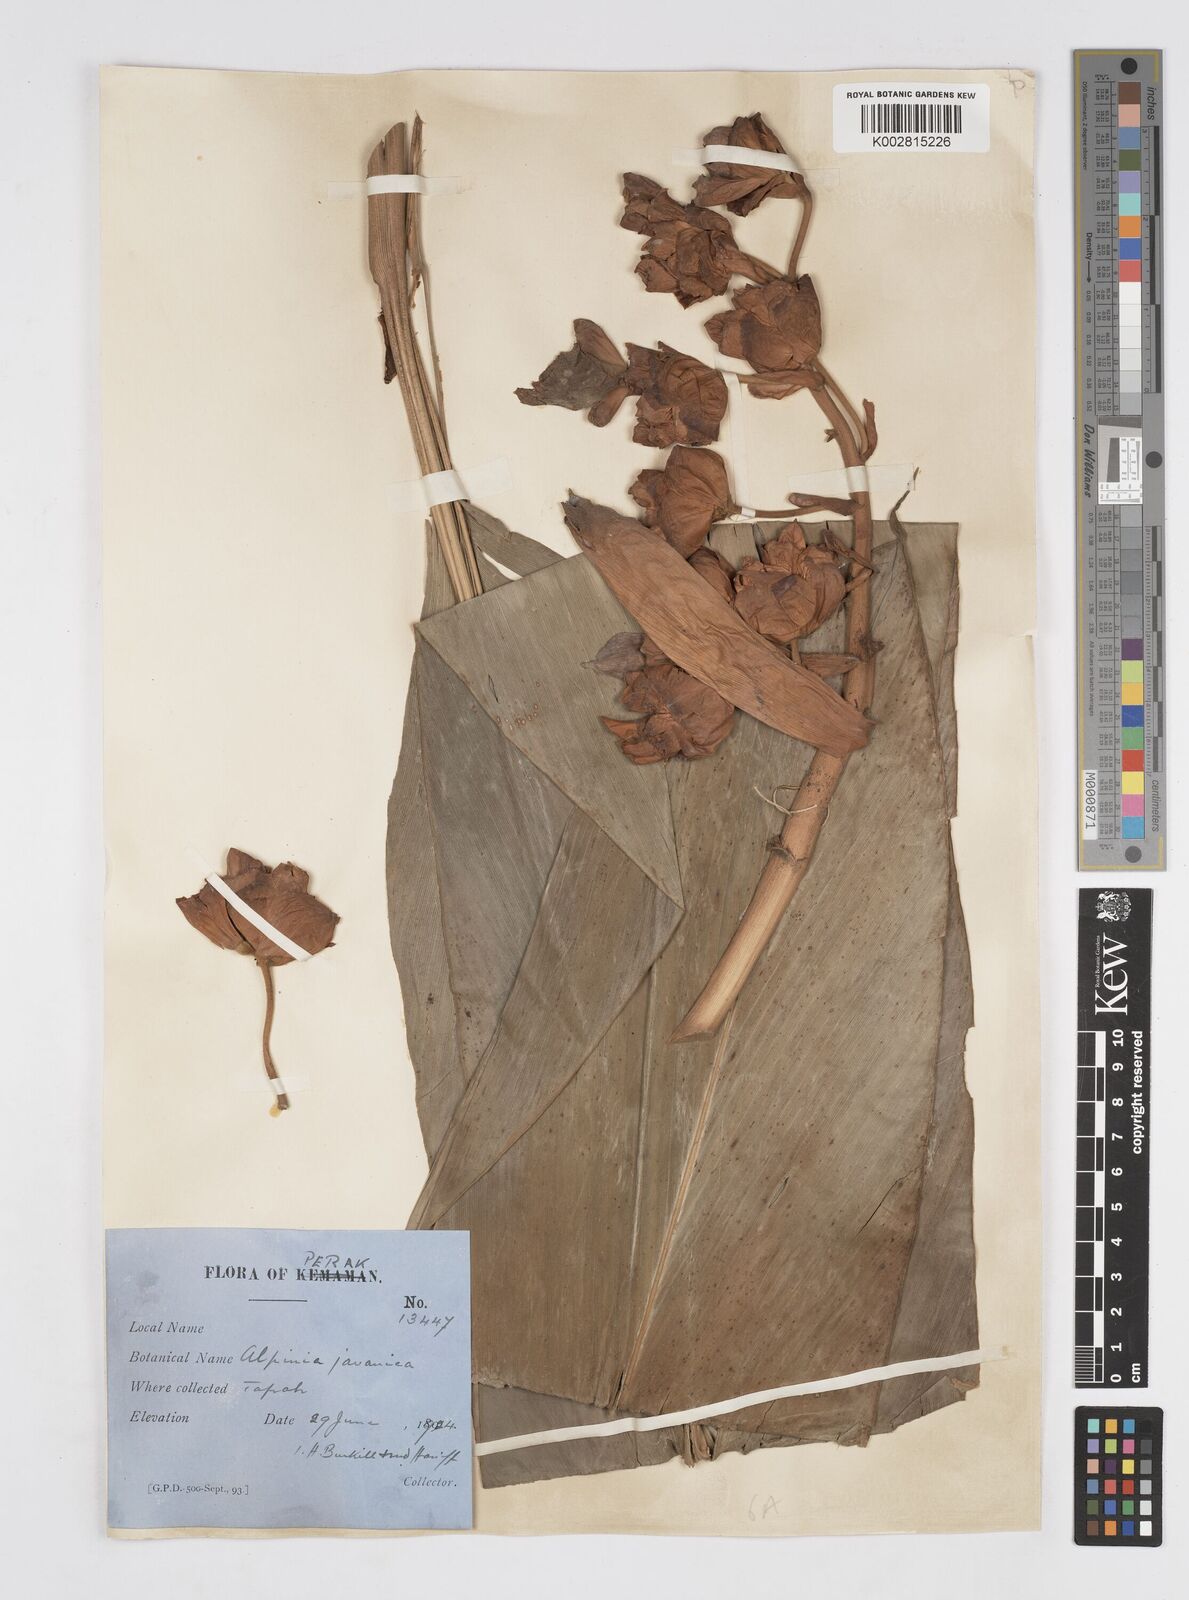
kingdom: Plantae
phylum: Tracheophyta
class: Liliopsida
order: Zingiberales
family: Zingiberaceae
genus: Alpinia
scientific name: Alpinia javanica
